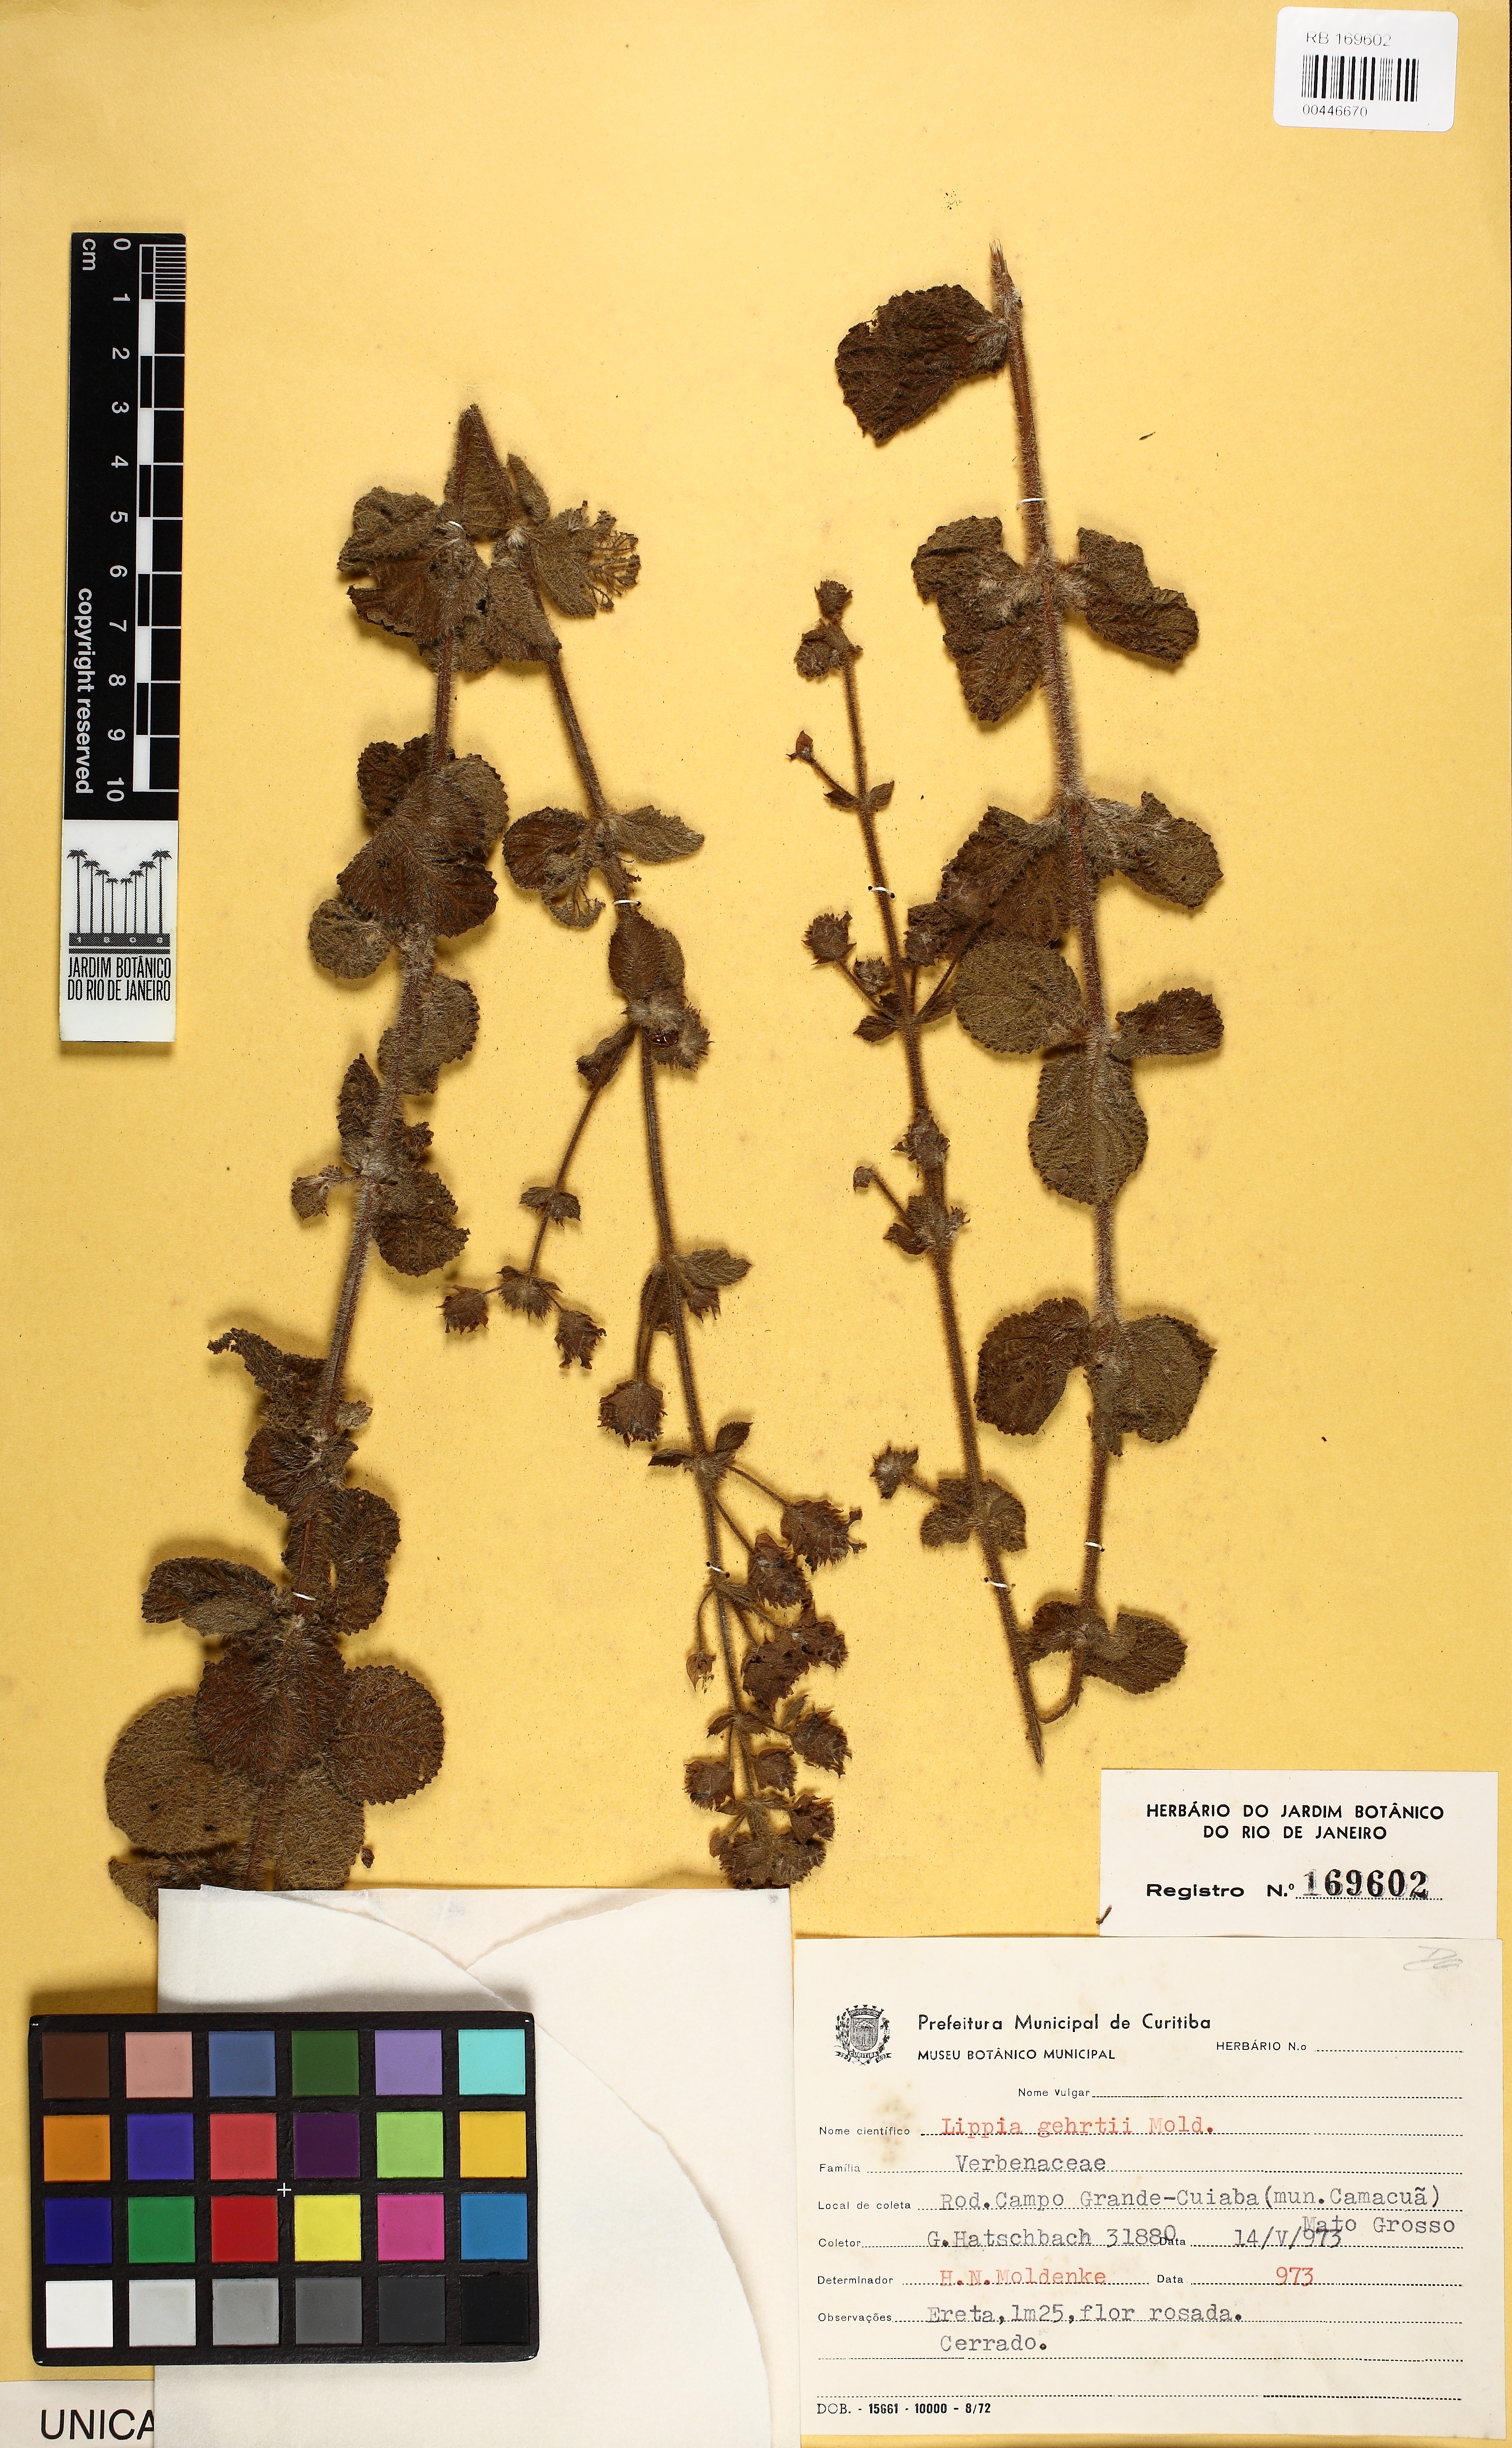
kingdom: Plantae
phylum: Tracheophyta
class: Magnoliopsida
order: Lamiales
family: Verbenaceae
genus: Lippia
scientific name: Lippia gehrtii
